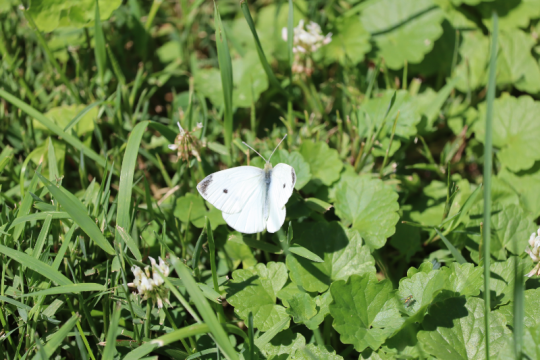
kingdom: Animalia
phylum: Arthropoda
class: Insecta
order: Lepidoptera
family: Pieridae
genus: Pieris
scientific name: Pieris rapae
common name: Cabbage White
